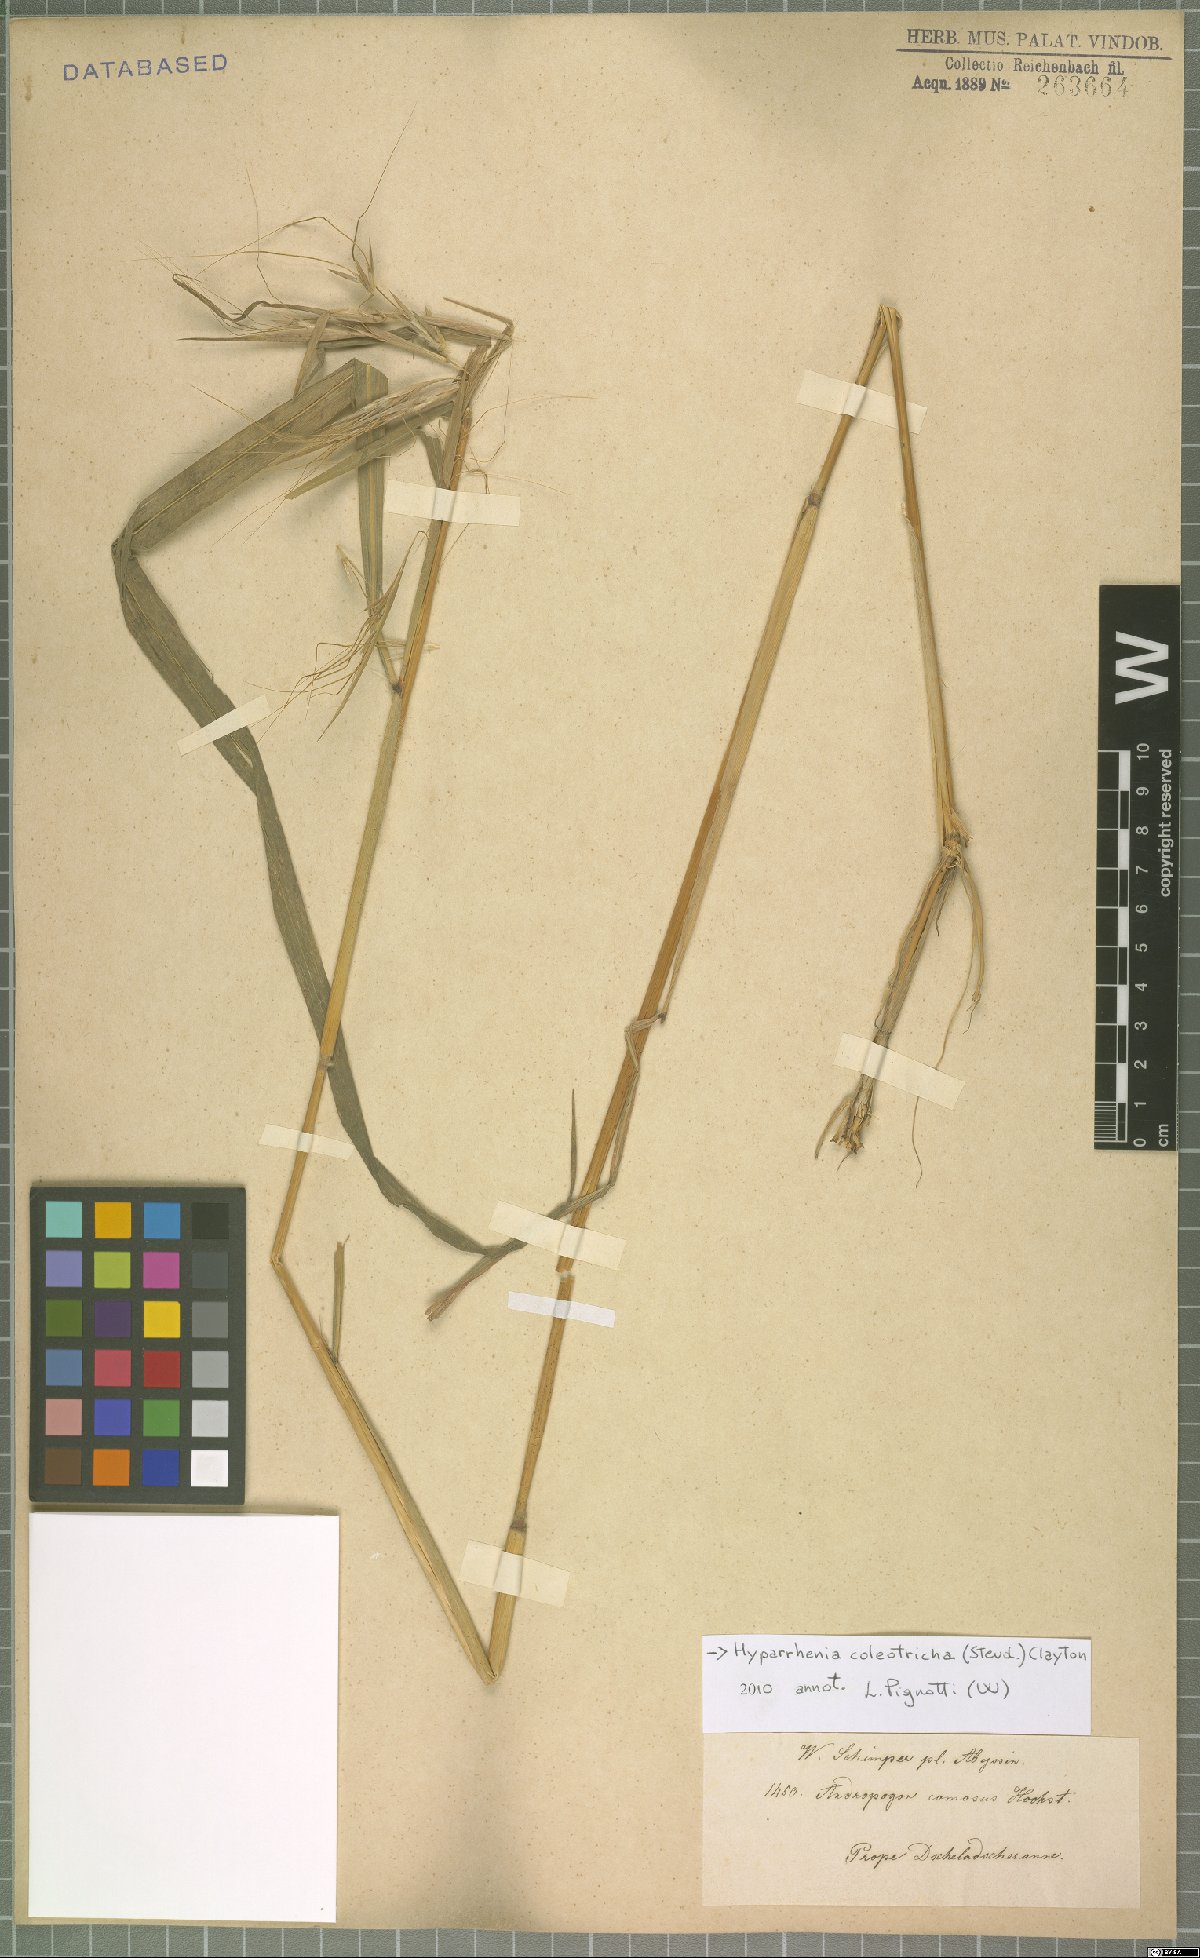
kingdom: Plantae
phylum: Tracheophyta
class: Liliopsida
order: Poales
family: Poaceae
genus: Hyparrhenia
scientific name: Hyparrhenia coleotricha
